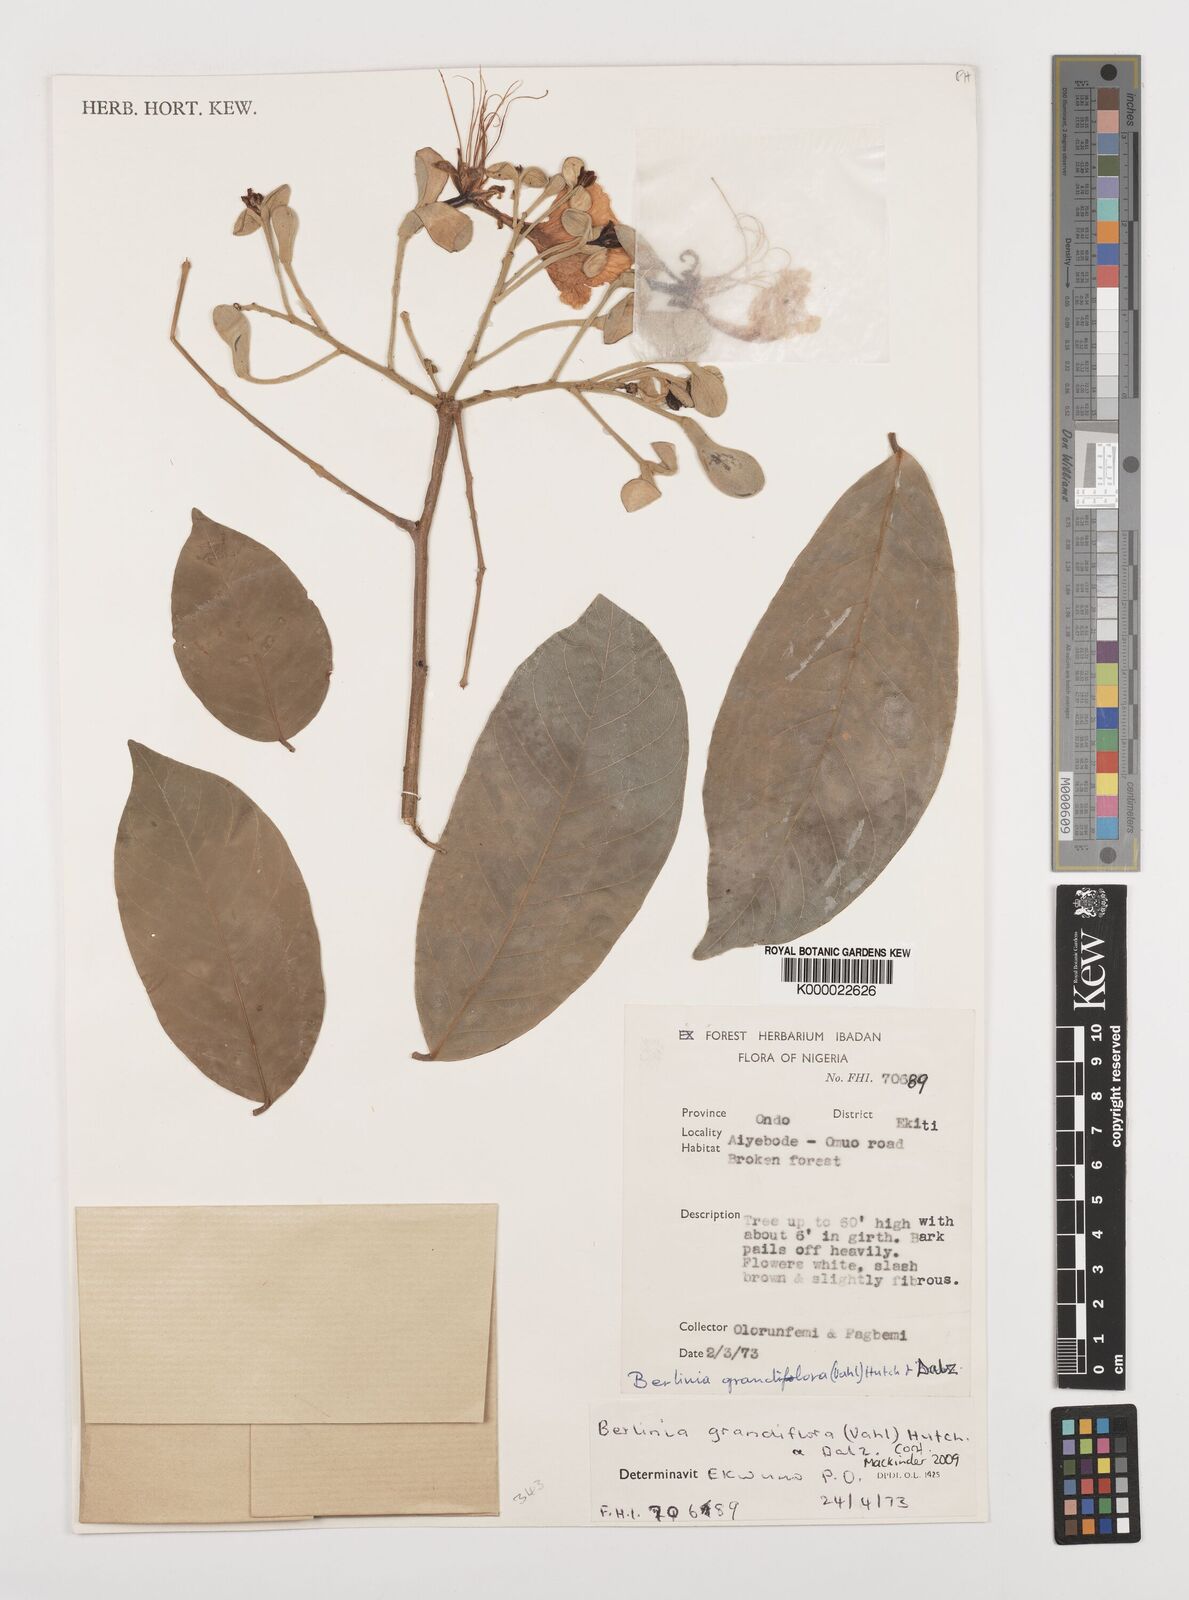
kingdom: Plantae
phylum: Tracheophyta
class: Magnoliopsida
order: Fabales
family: Fabaceae
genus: Berlinia
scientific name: Berlinia grandiflora
